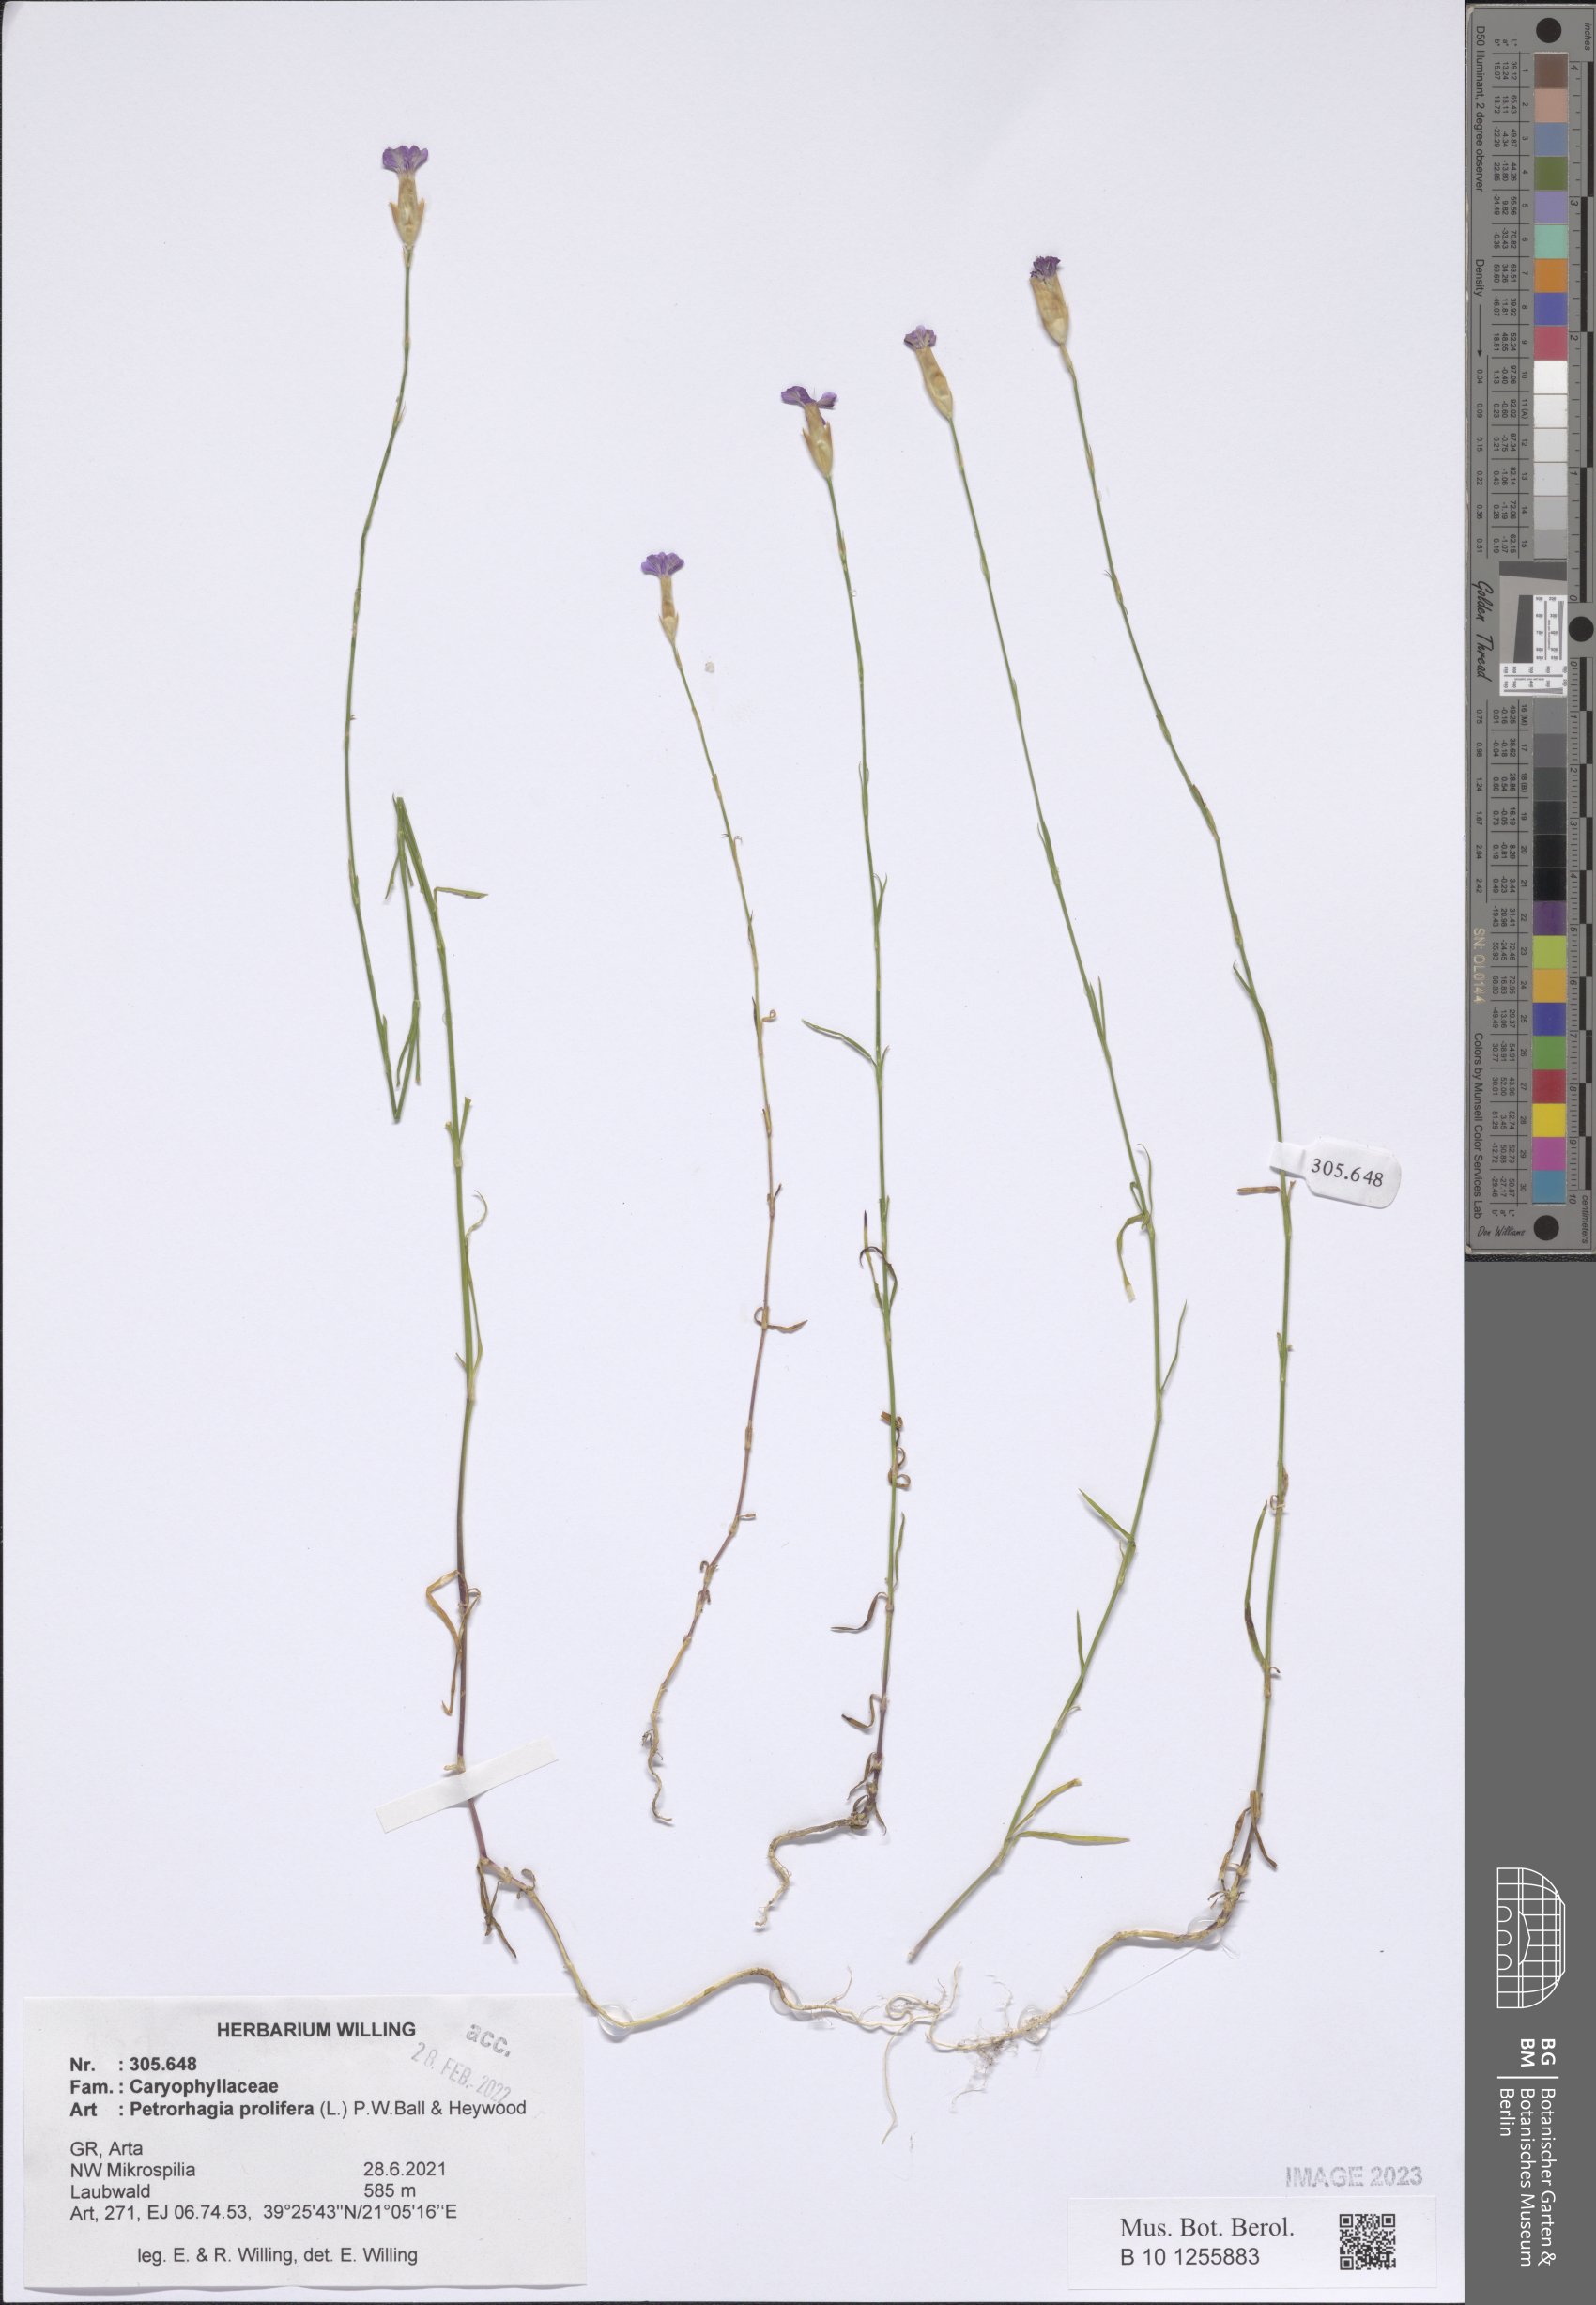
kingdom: Plantae
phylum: Tracheophyta
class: Magnoliopsida
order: Caryophyllales
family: Caryophyllaceae
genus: Petrorhagia
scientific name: Petrorhagia prolifera
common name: Proliferous pink
